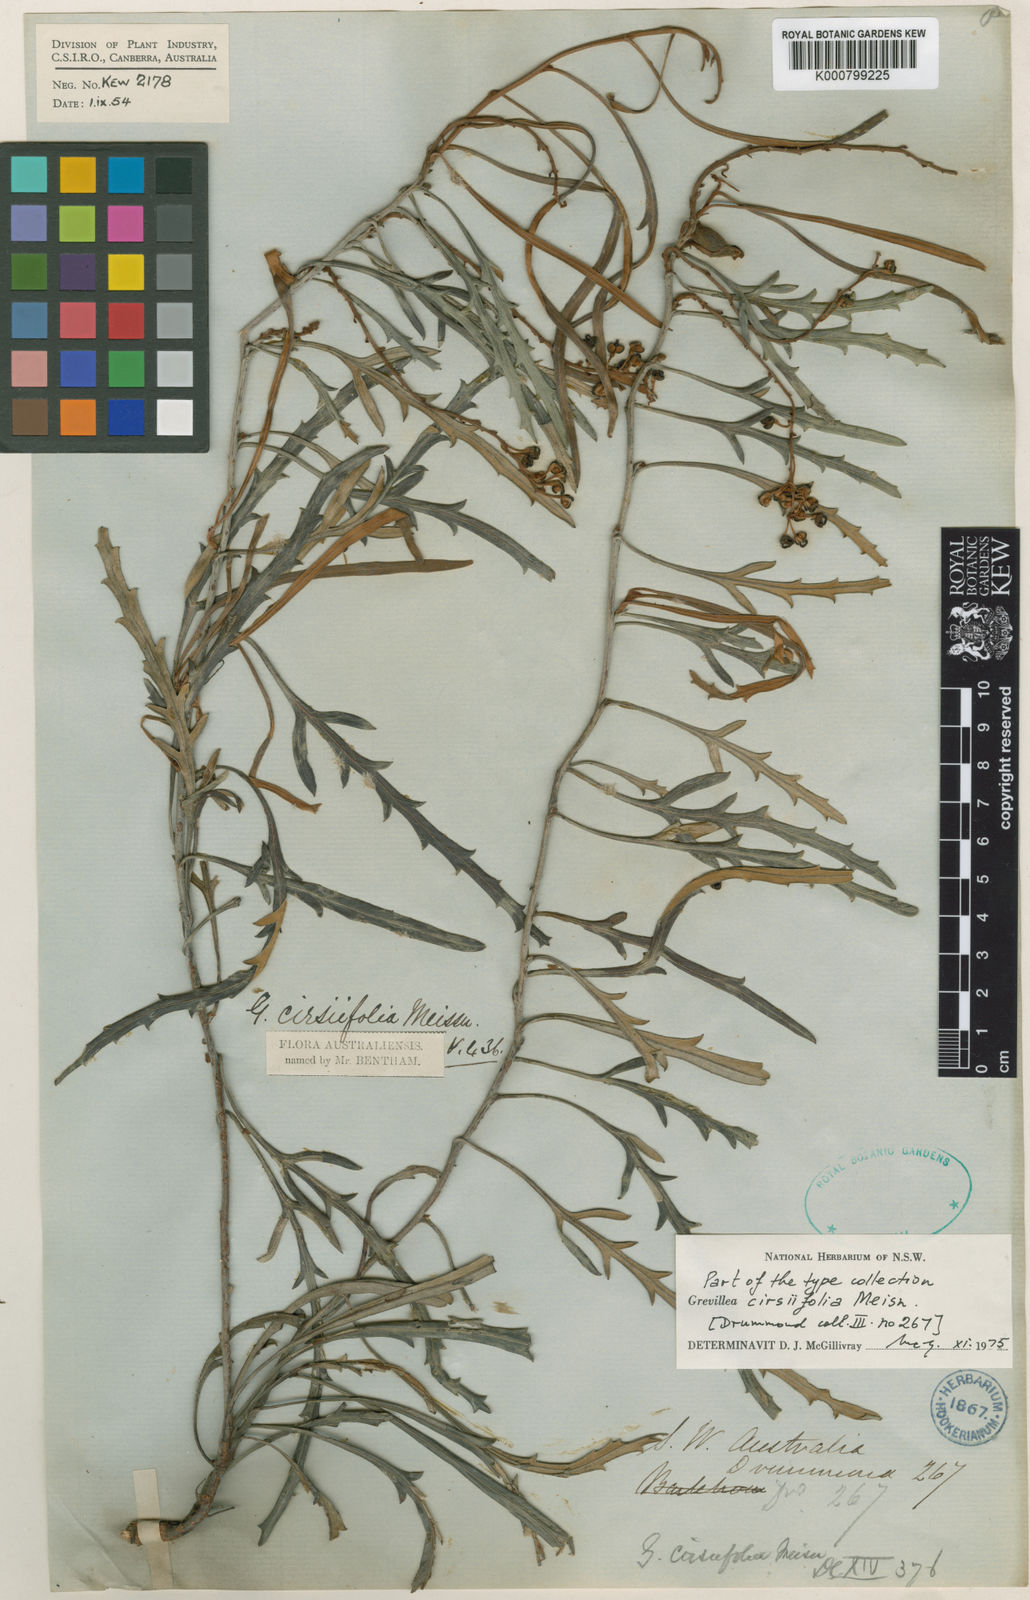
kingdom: Plantae
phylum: Tracheophyta
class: Magnoliopsida
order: Proteales
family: Proteaceae
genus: Grevillea
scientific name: Grevillea cirsiifolia
